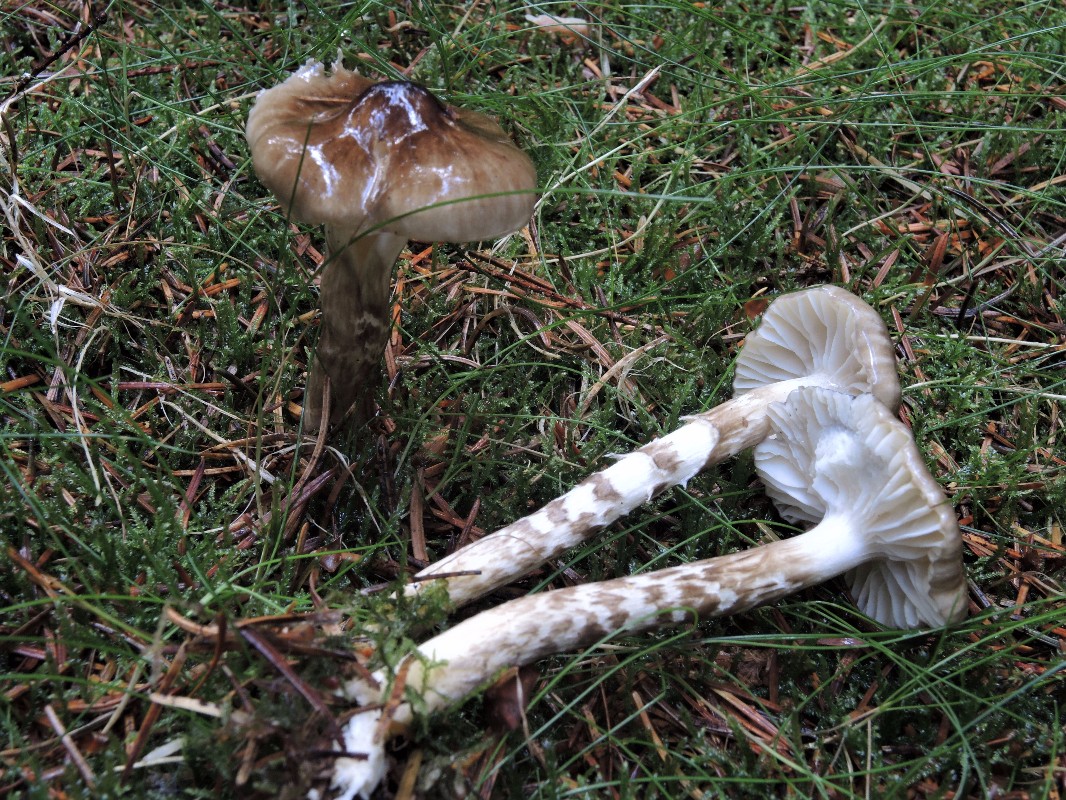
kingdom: Fungi
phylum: Basidiomycota
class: Agaricomycetes
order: Agaricales
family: Hygrophoraceae
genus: Hygrophorus
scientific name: Hygrophorus olivaceoalbus
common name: hvidbrun sneglehat
